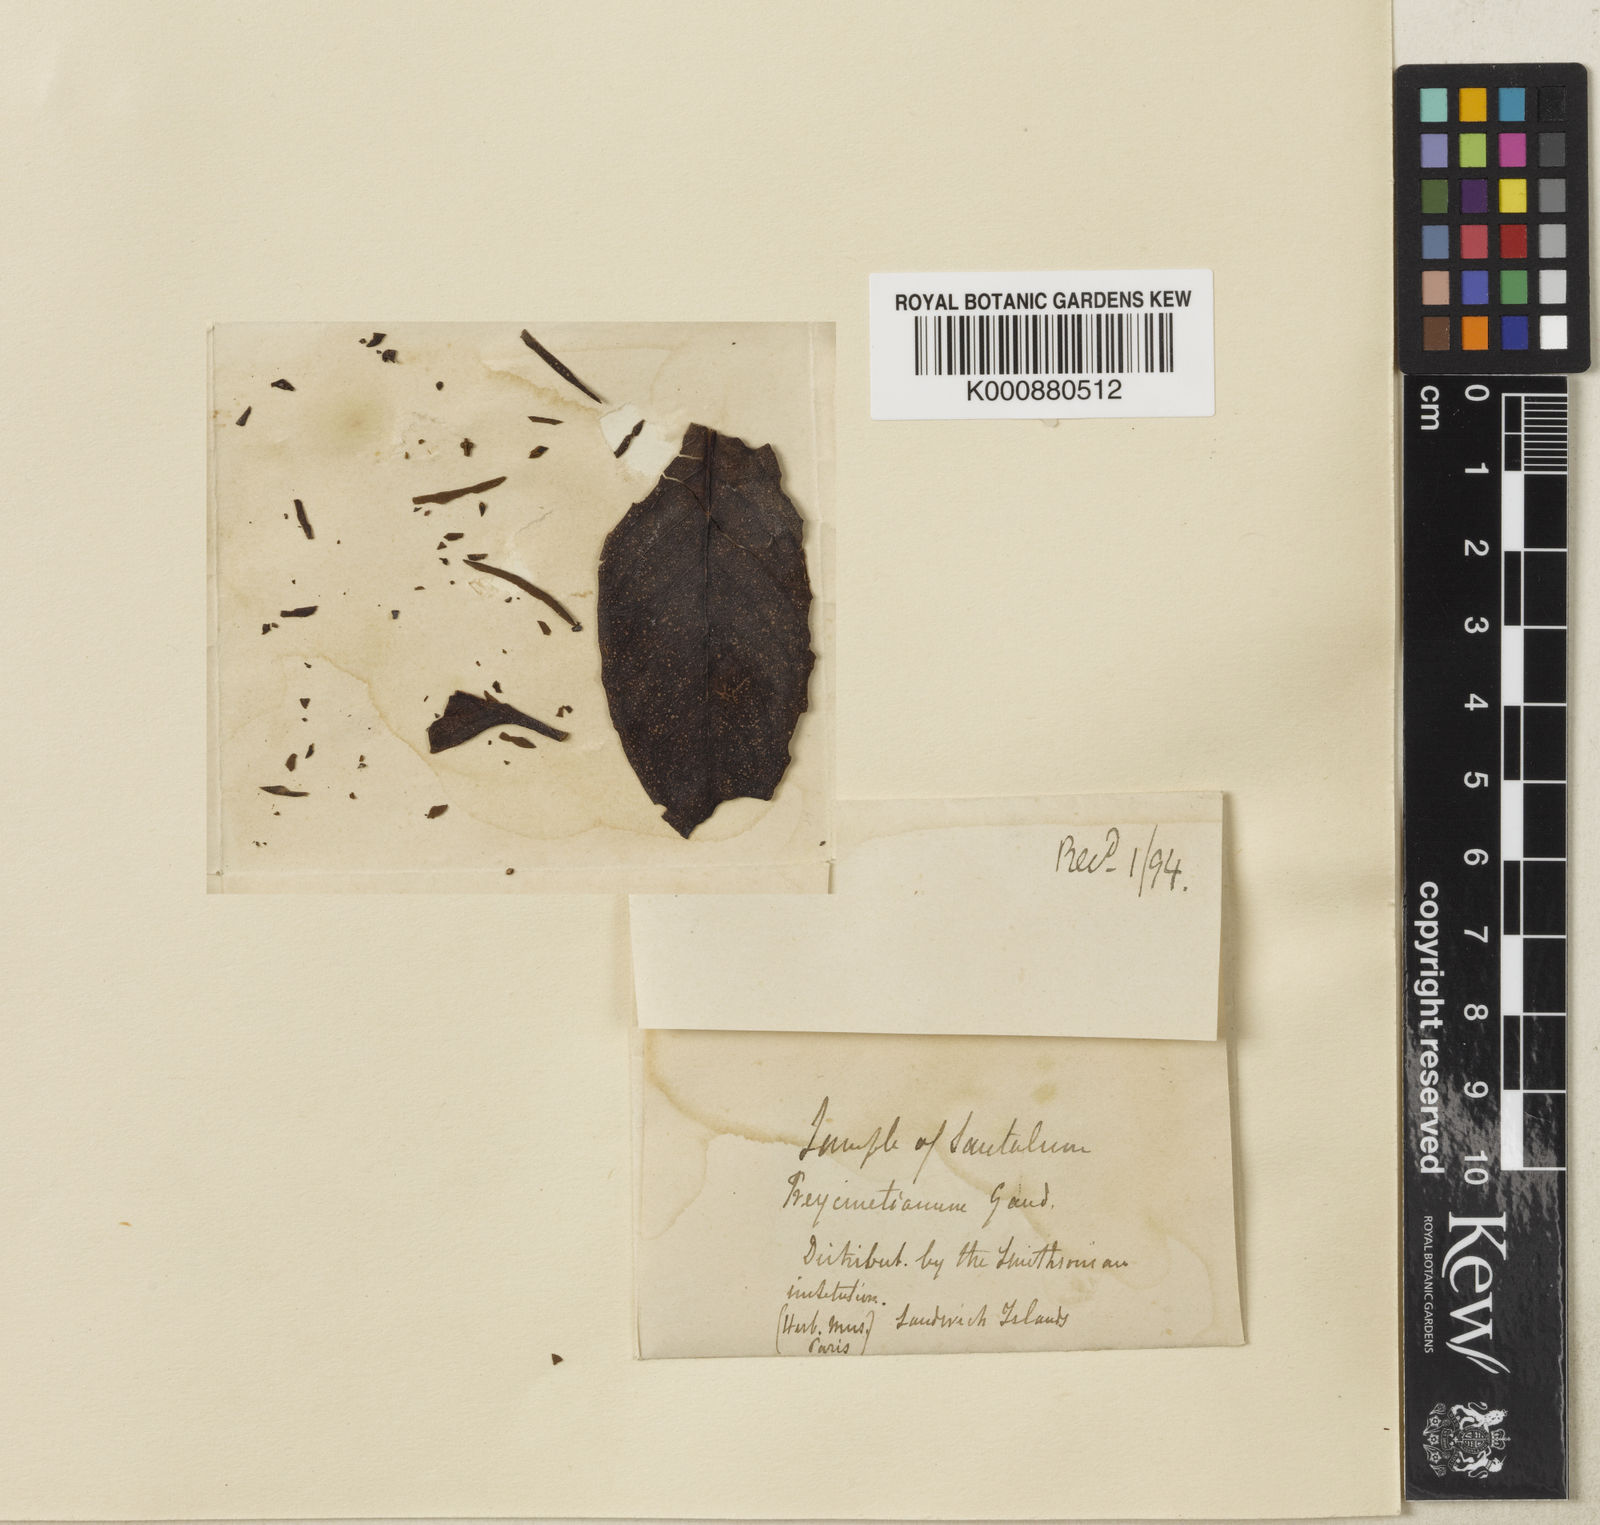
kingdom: Plantae
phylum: Tracheophyta
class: Magnoliopsida
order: Santalales
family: Santalaceae
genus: Santalum
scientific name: Santalum freycinetianum
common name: Lanai sandalwood
